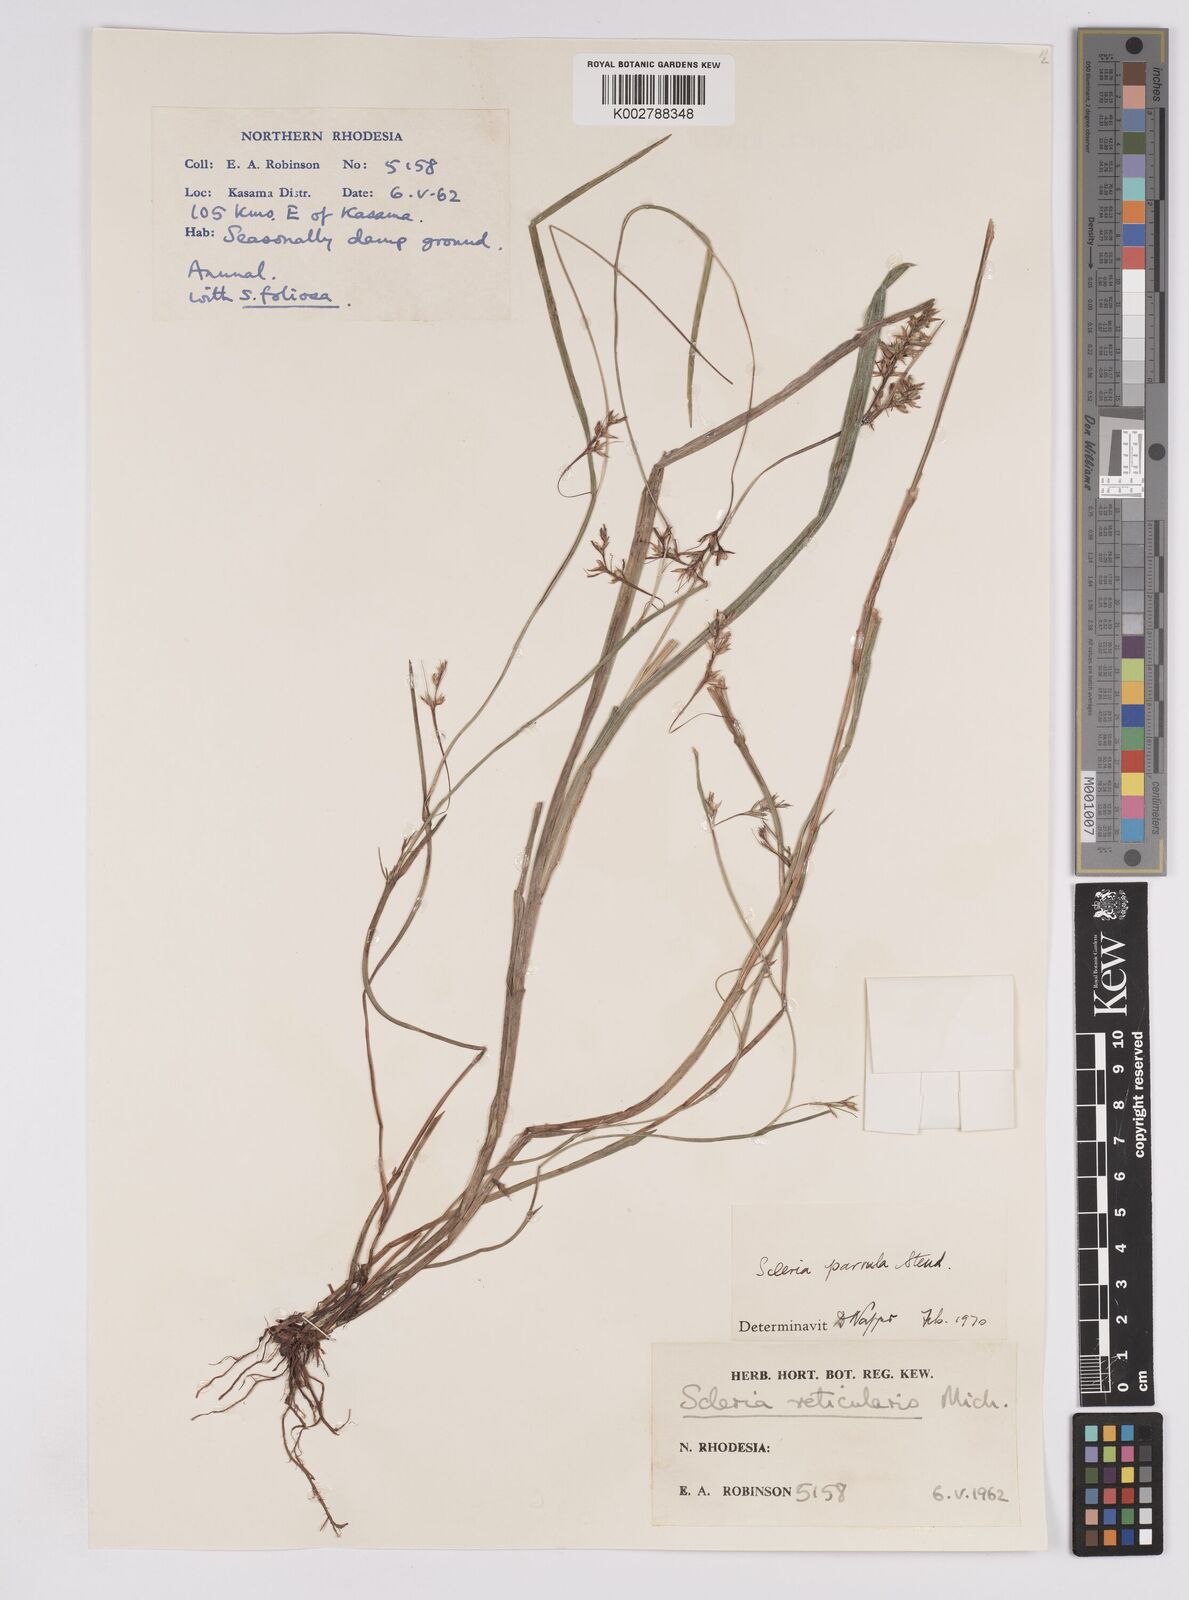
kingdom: Plantae
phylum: Tracheophyta
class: Liliopsida
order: Poales
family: Cyperaceae
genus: Scleria
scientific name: Scleria parvula
